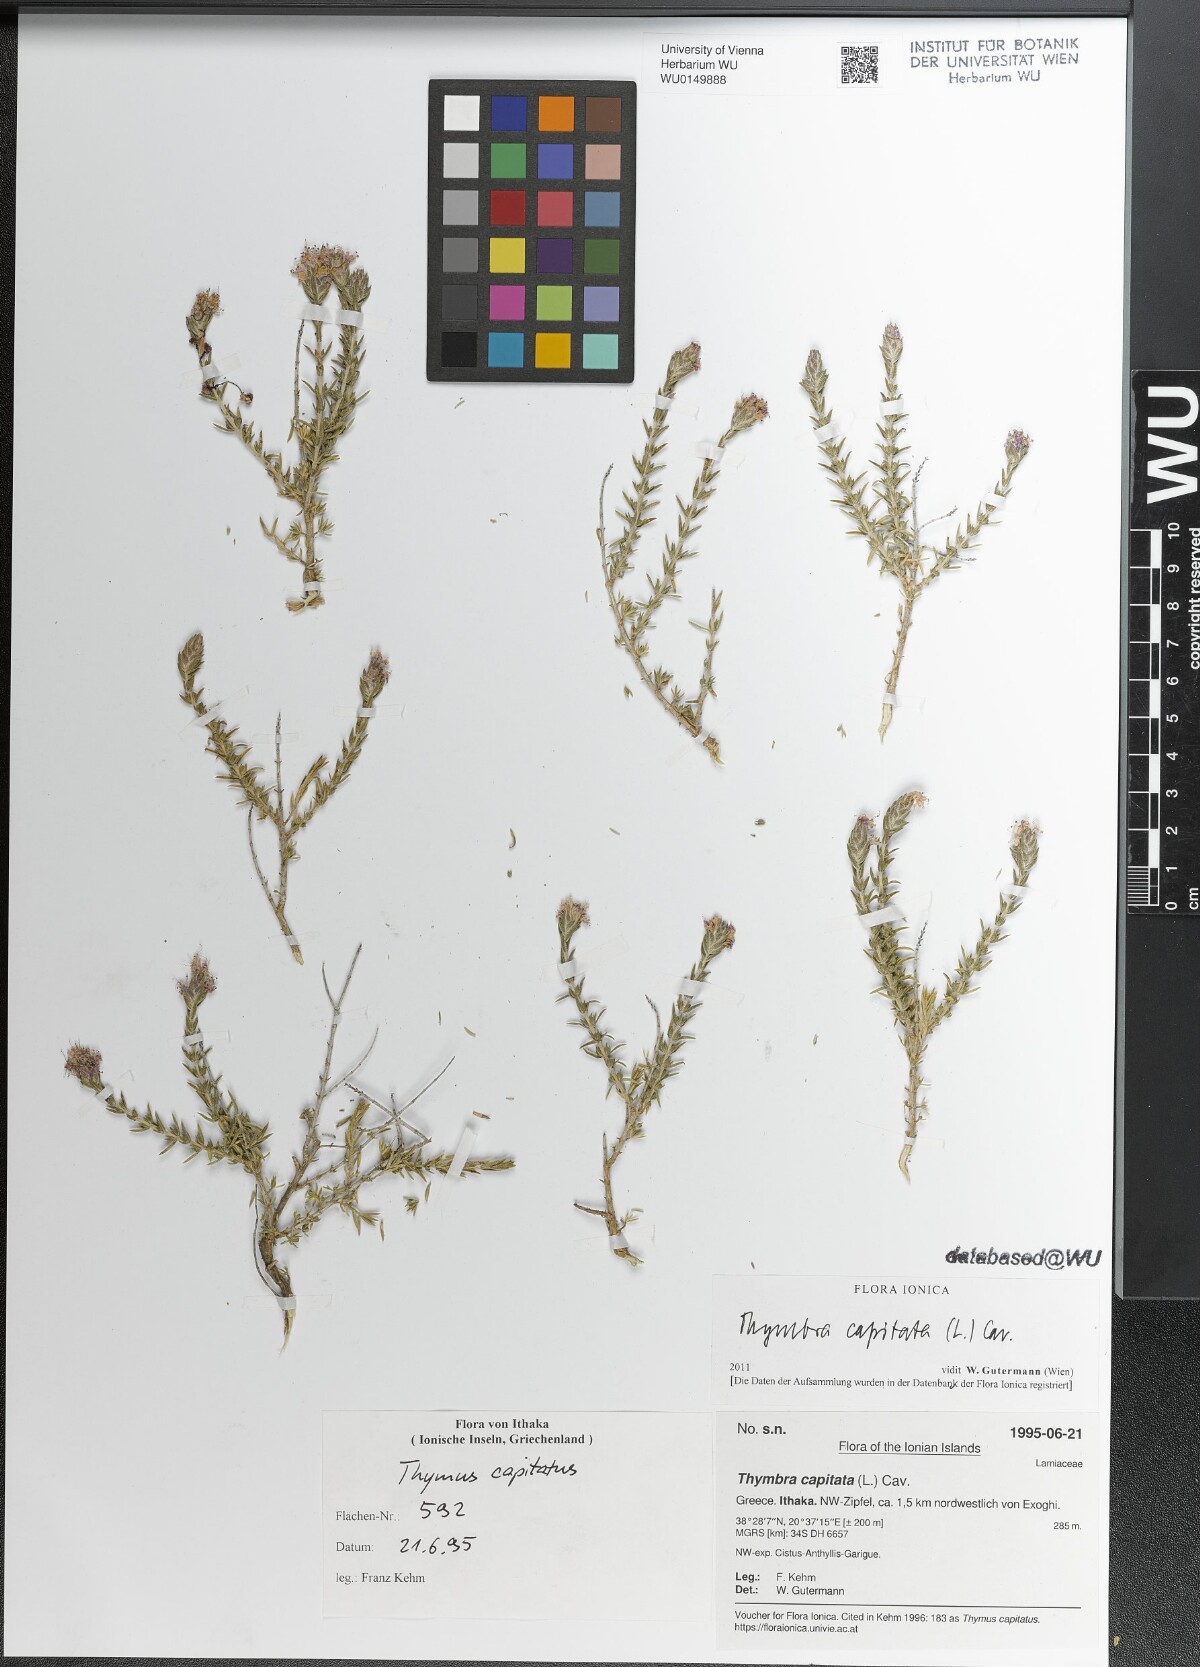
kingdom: Plantae
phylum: Tracheophyta
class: Magnoliopsida
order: Lamiales
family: Lamiaceae
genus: Thymbra
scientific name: Thymbra capitata
